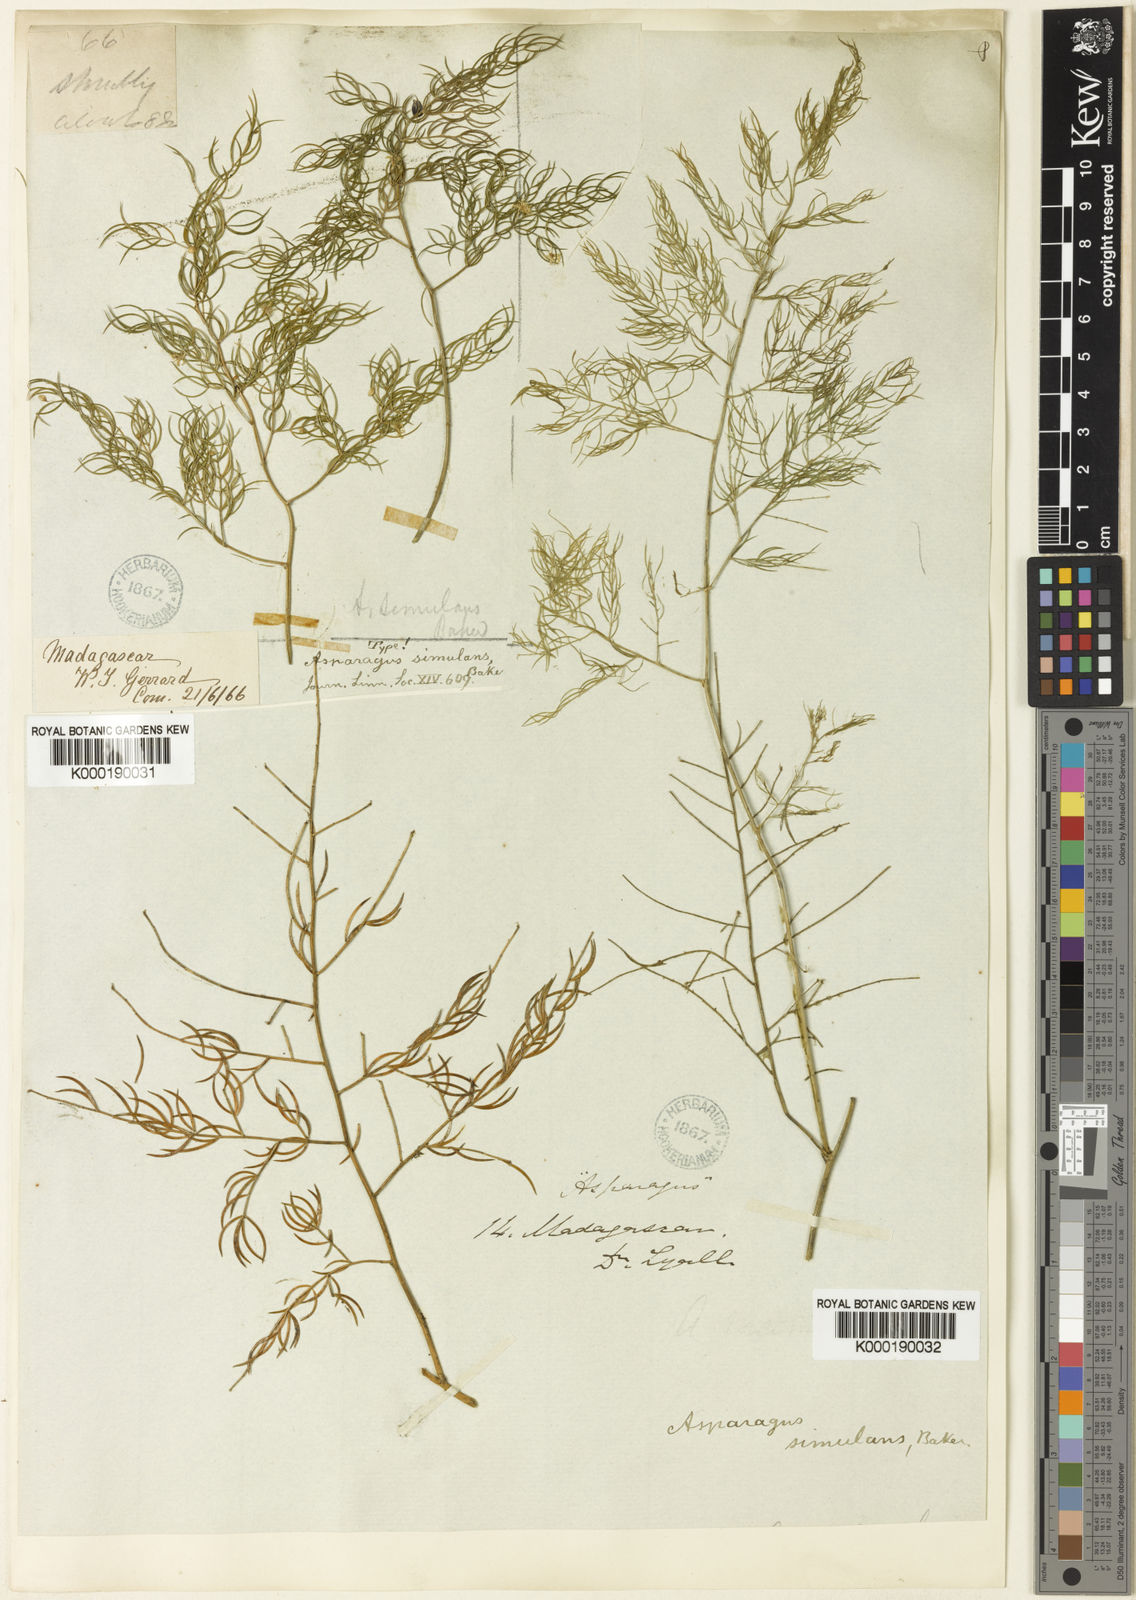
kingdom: Plantae
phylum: Tracheophyta
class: Liliopsida
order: Asparagales
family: Asparagaceae
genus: Asparagus
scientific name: Asparagus simulans
